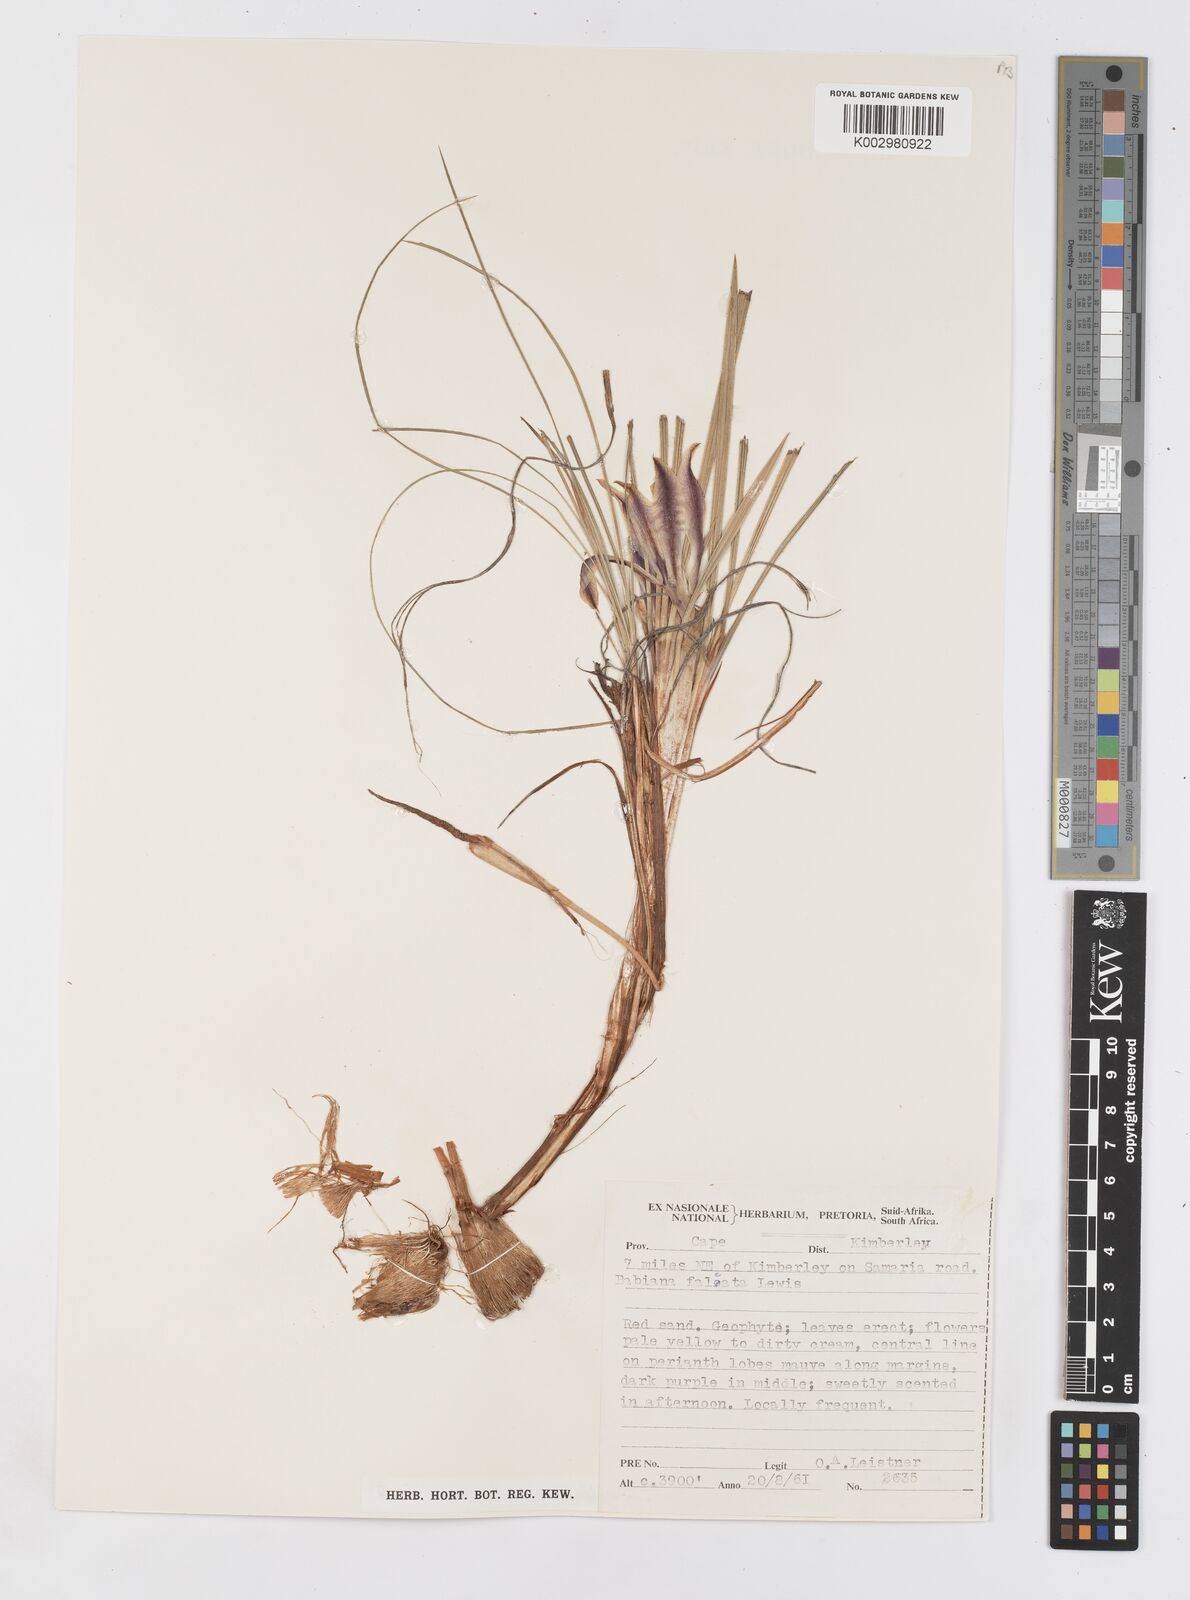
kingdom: Plantae
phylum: Tracheophyta
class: Liliopsida
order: Asparagales
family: Iridaceae
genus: Babiana
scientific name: Babiana hypogaea
